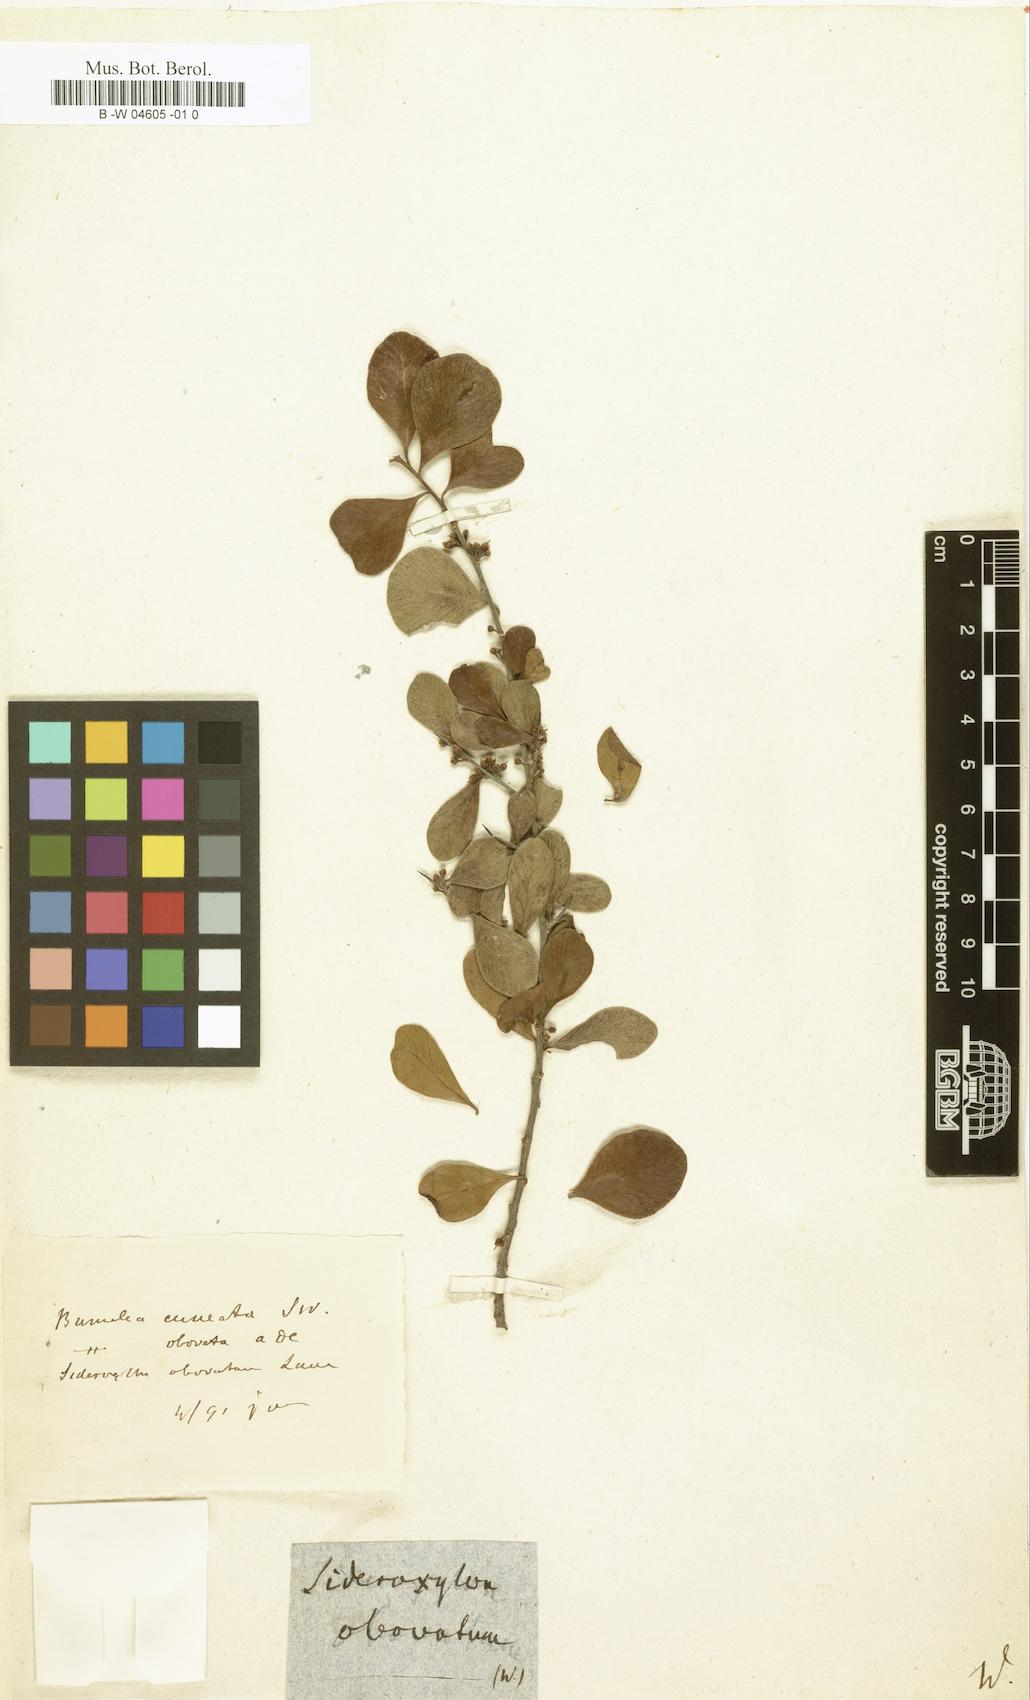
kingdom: Plantae
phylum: Tracheophyta
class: Magnoliopsida
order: Ericales
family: Sapotaceae
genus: Sideroxylon
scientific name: Sideroxylon obovatum
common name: Breakbill
